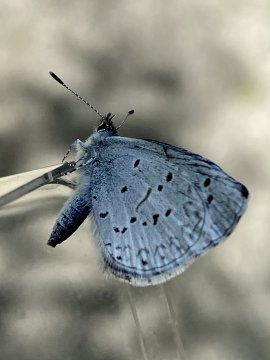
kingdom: Animalia
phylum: Arthropoda
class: Insecta
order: Lepidoptera
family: Lycaenidae
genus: Celastrina
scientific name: Celastrina ladon
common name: Echo Azure
